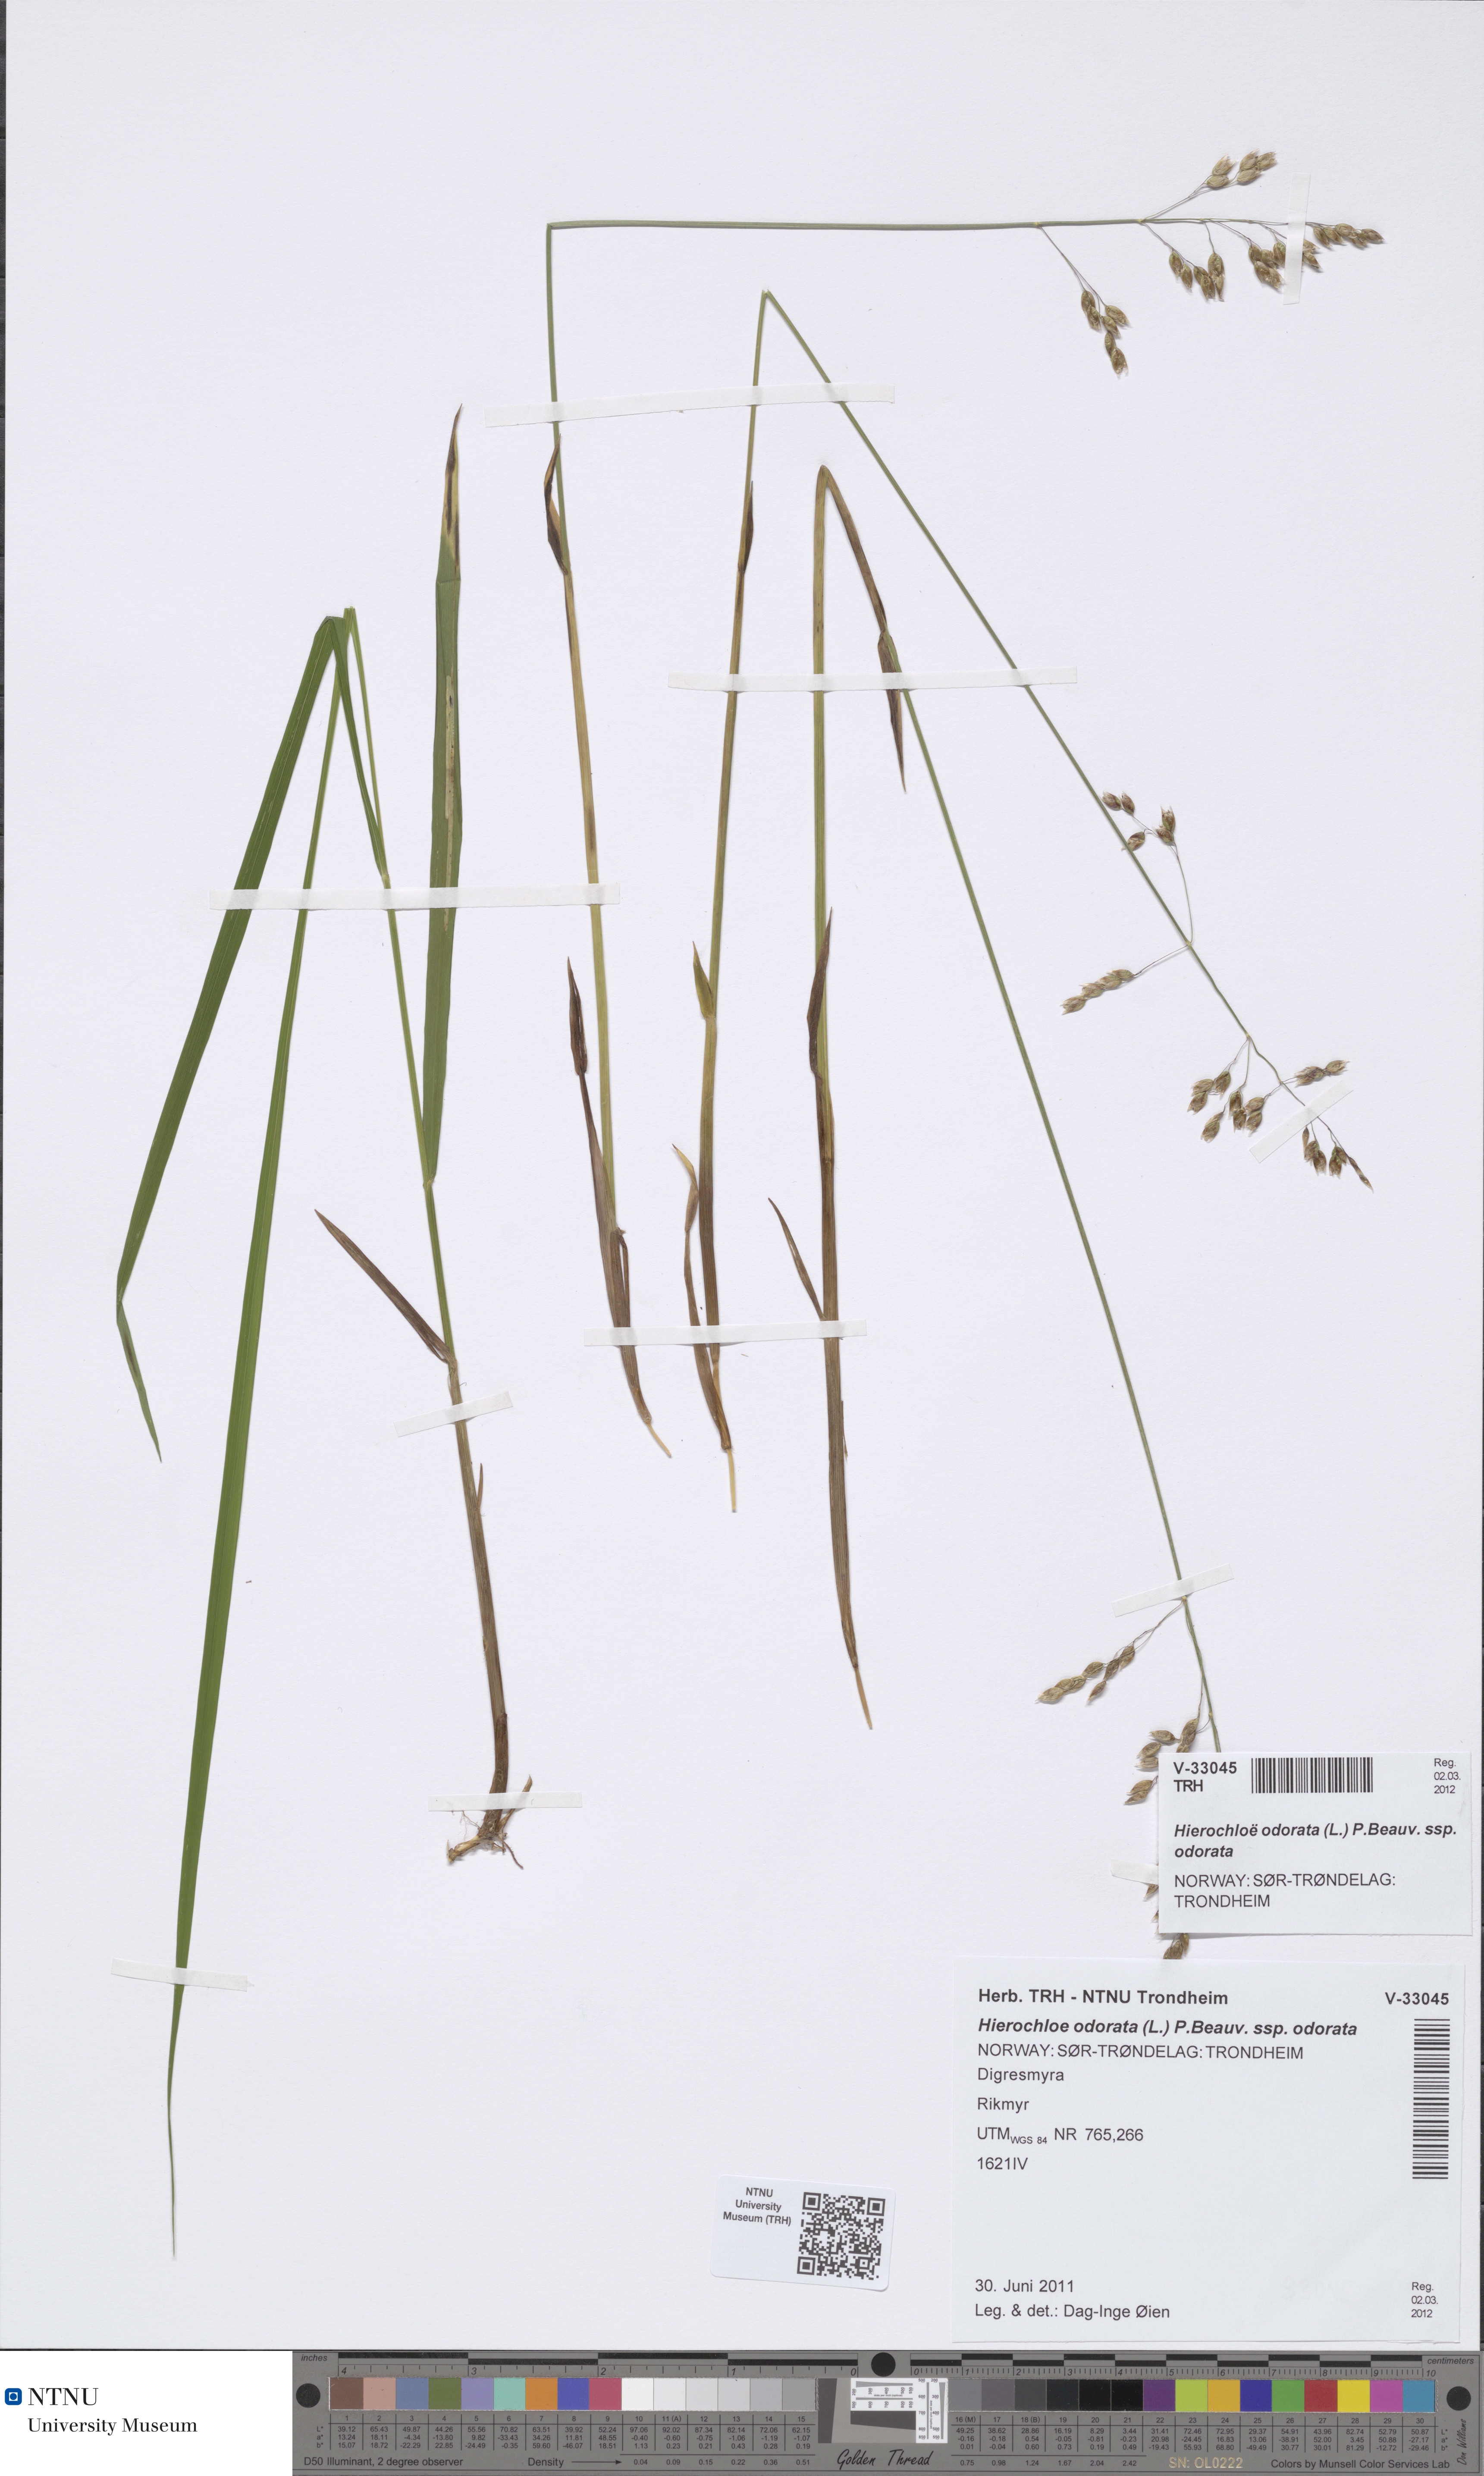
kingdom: Plantae
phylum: Tracheophyta
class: Liliopsida
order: Poales
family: Poaceae
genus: Anthoxanthum
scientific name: Anthoxanthum nitens
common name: Holy grass
